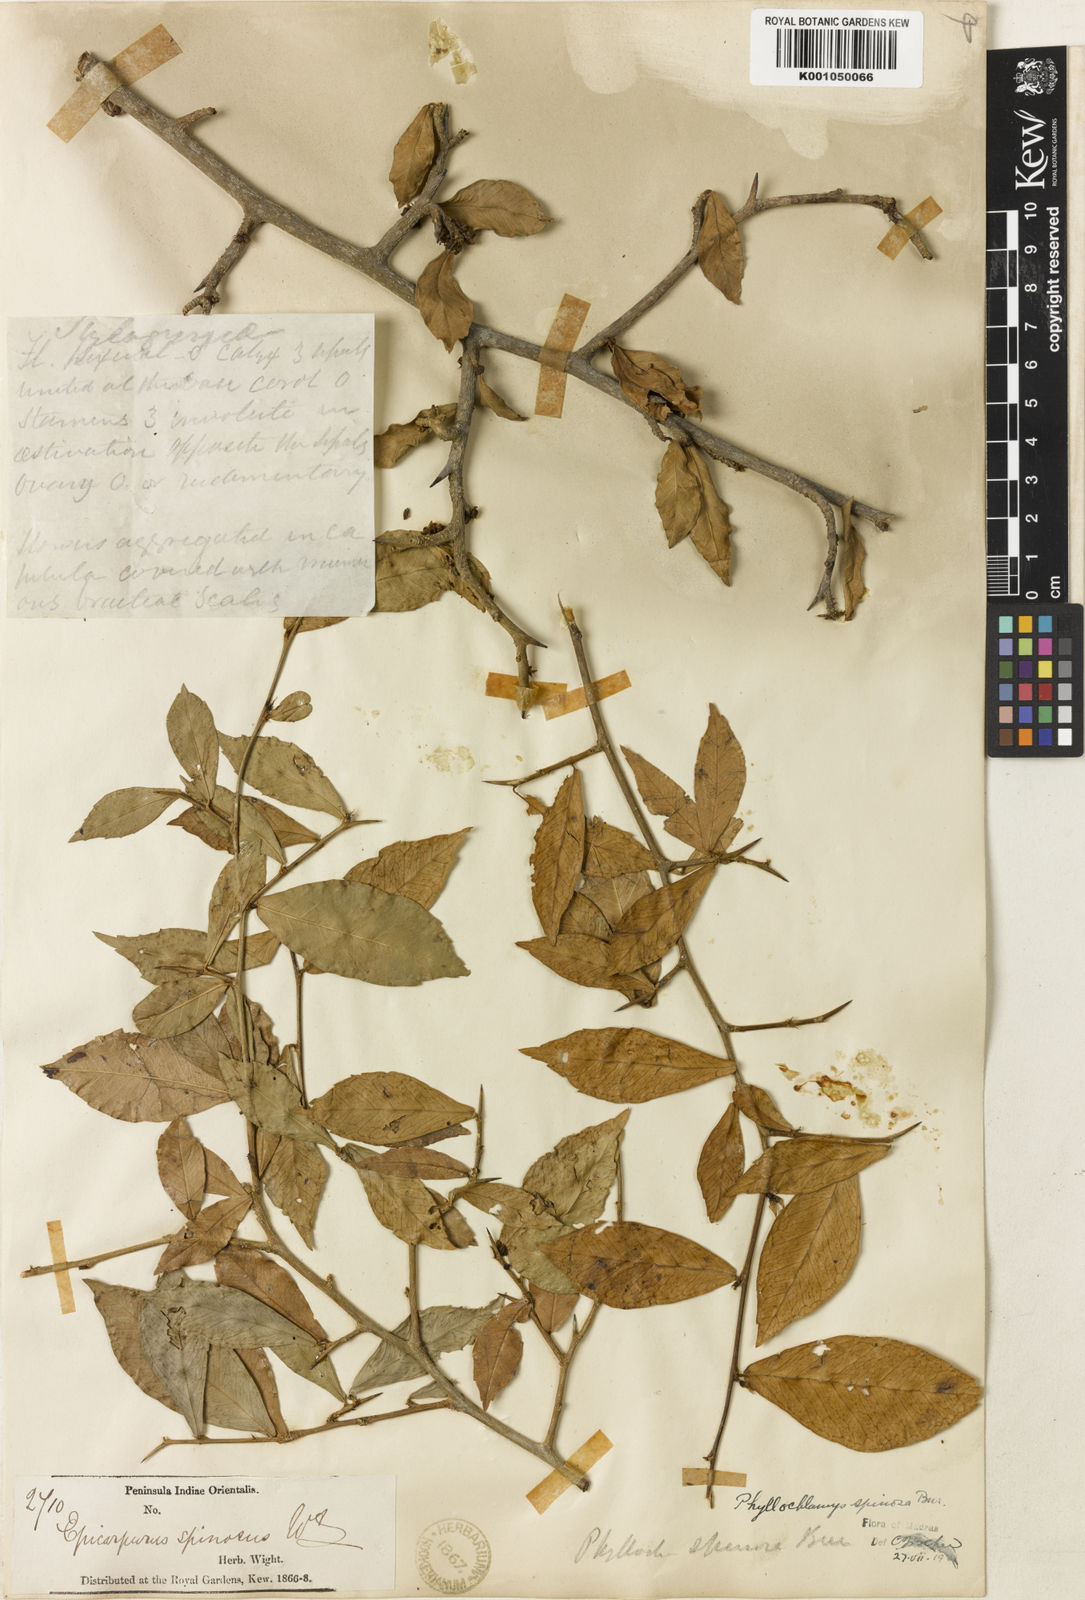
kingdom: Plantae
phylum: Tracheophyta
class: Magnoliopsida
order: Rosales
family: Moraceae
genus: Taxotrophis
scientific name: Taxotrophis taxoides
